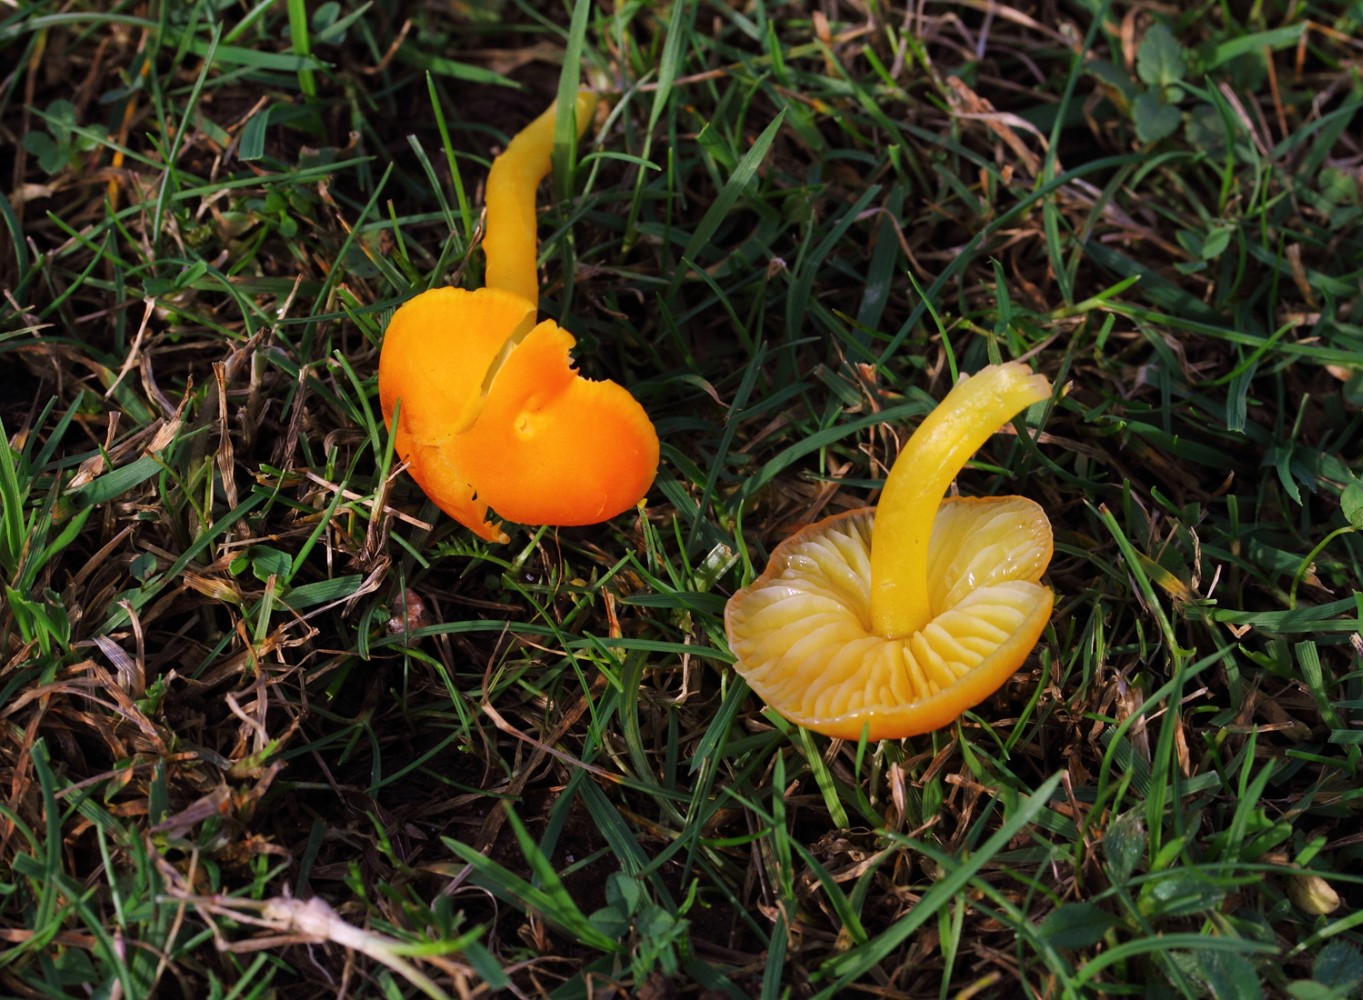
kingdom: Fungi
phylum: Basidiomycota
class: Agaricomycetes
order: Agaricales
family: Hygrophoraceae
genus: Hygrocybe
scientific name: Hygrocybe
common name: vokshat
